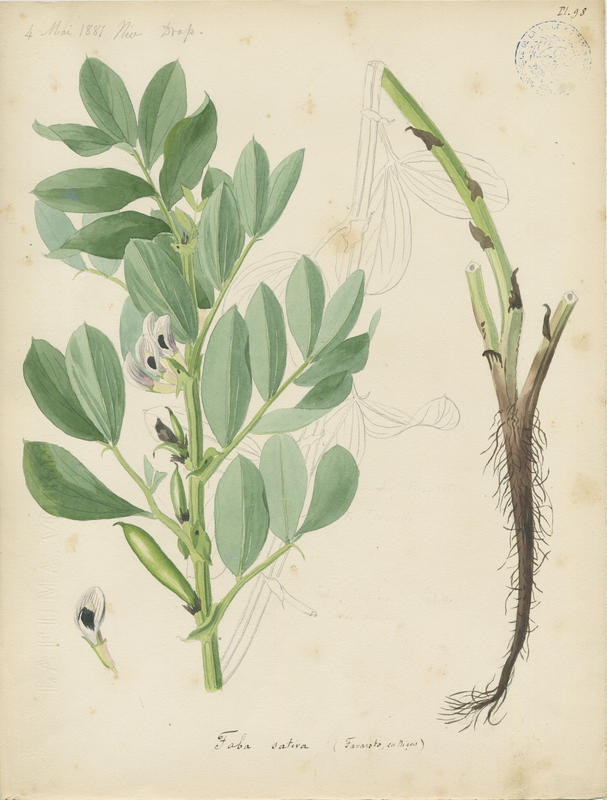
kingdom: Plantae
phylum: Tracheophyta
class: Magnoliopsida
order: Fabales
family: Fabaceae
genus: Vicia
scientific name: Vicia faba
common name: Broad bean
